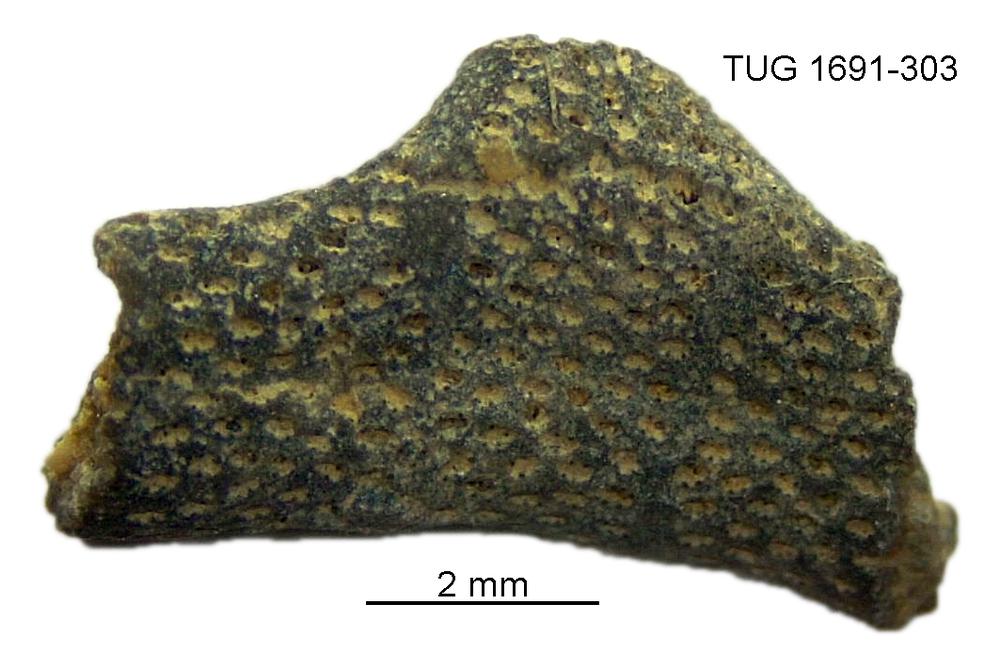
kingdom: Animalia
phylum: Bryozoa
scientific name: Bryozoa
